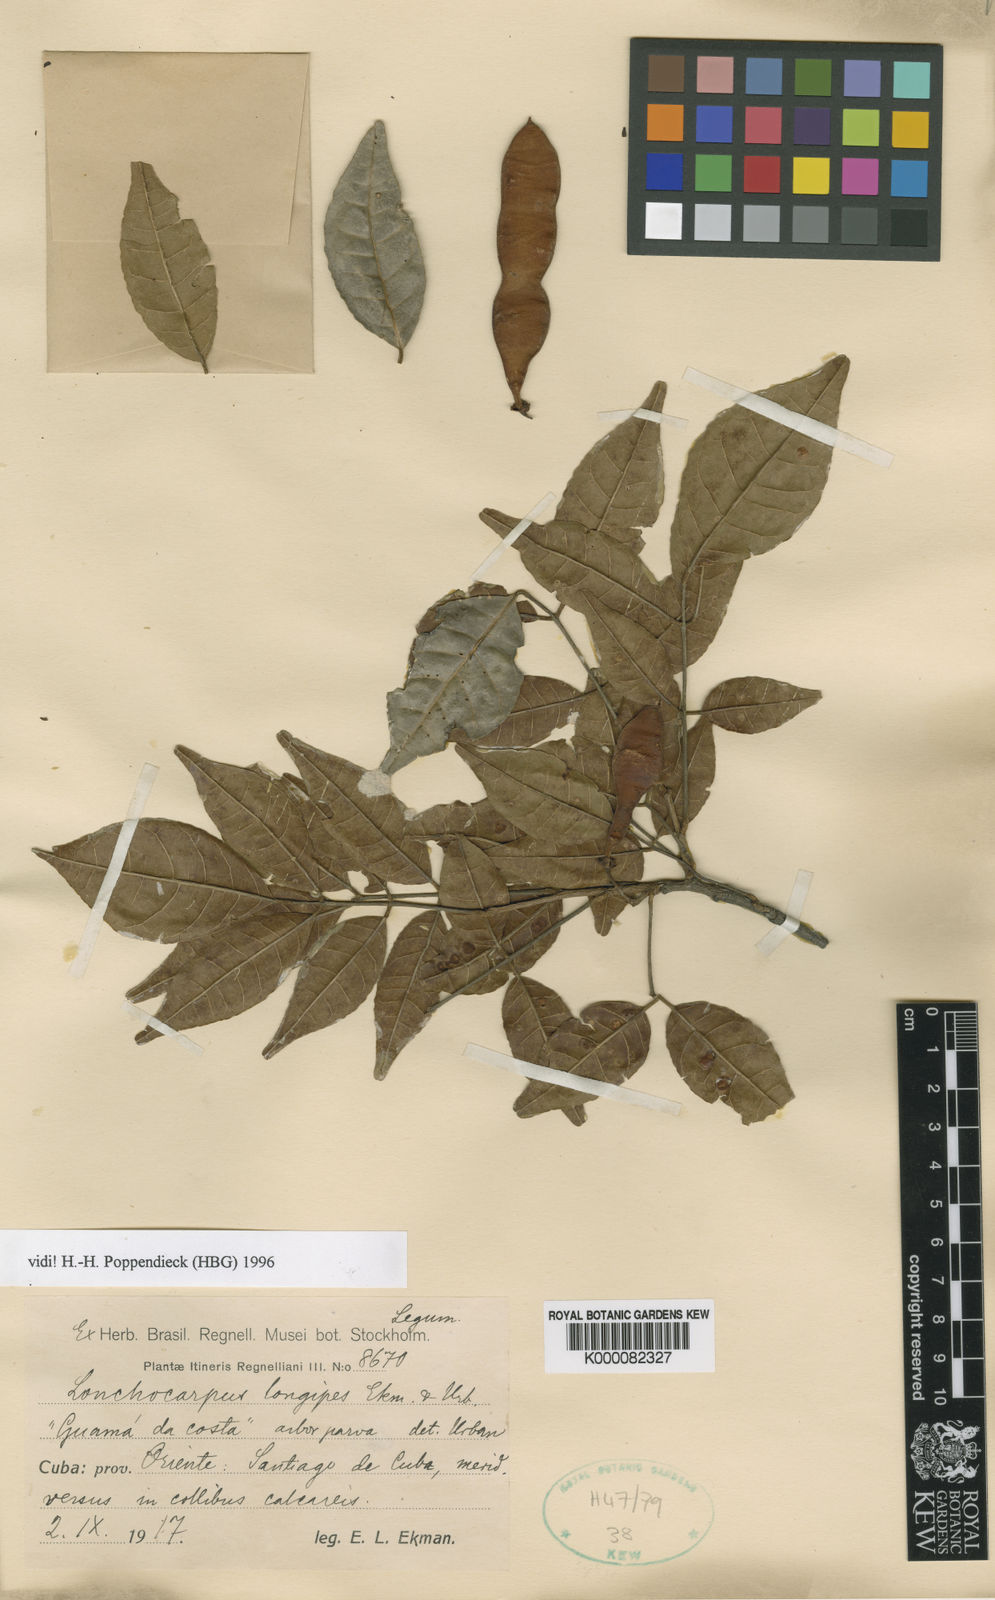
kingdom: Plantae
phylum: Tracheophyta
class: Magnoliopsida
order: Fabales
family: Fabaceae
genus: Lonchocarpus
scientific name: Lonchocarpus longipes
